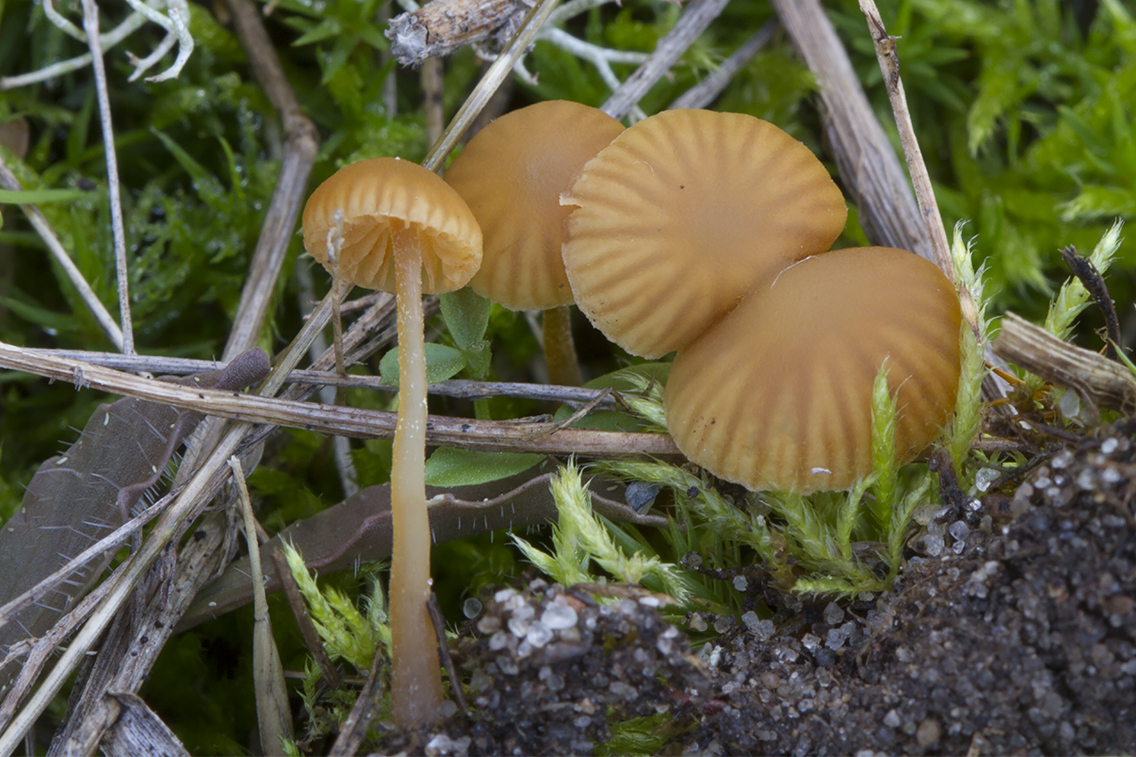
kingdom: Fungi
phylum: Basidiomycota
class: Agaricomycetes
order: Agaricales
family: Hymenogastraceae
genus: Galerina
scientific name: Galerina mniophila
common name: olivengul hjelmhat
